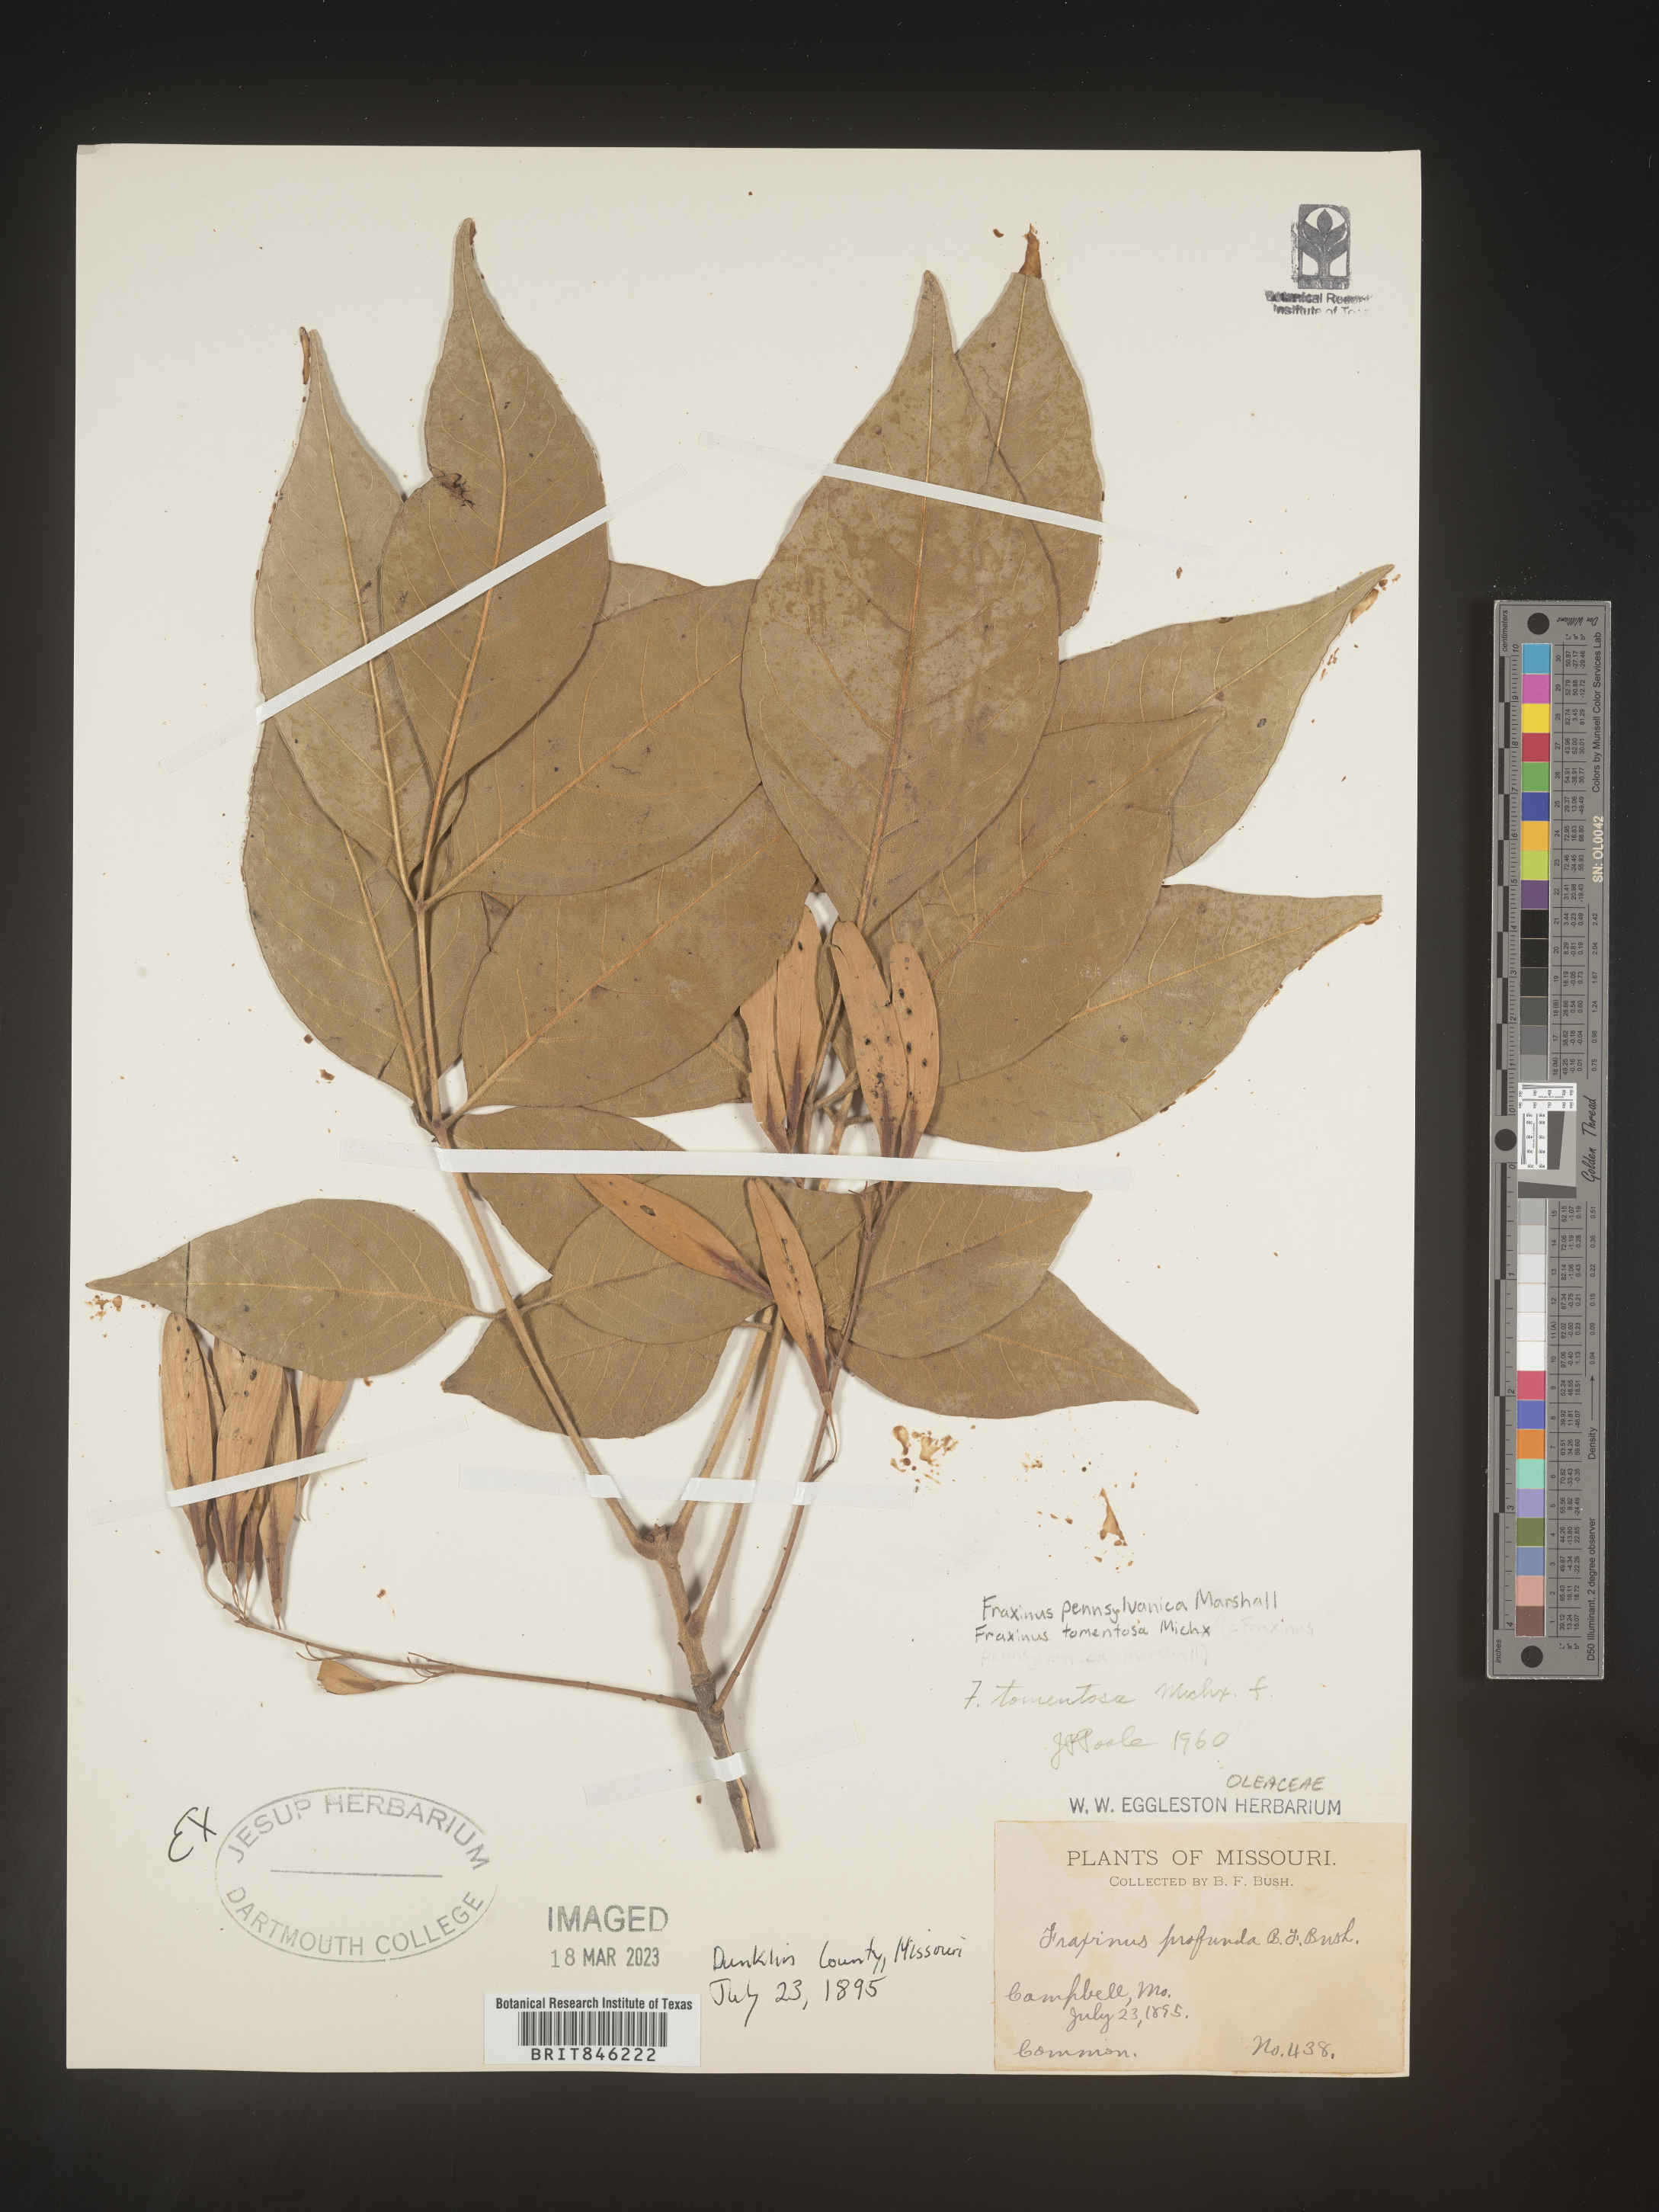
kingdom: Plantae
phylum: Tracheophyta
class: Magnoliopsida
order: Lamiales
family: Oleaceae
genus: Fraxinus
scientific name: Fraxinus pennsylvanica
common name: Green ash
